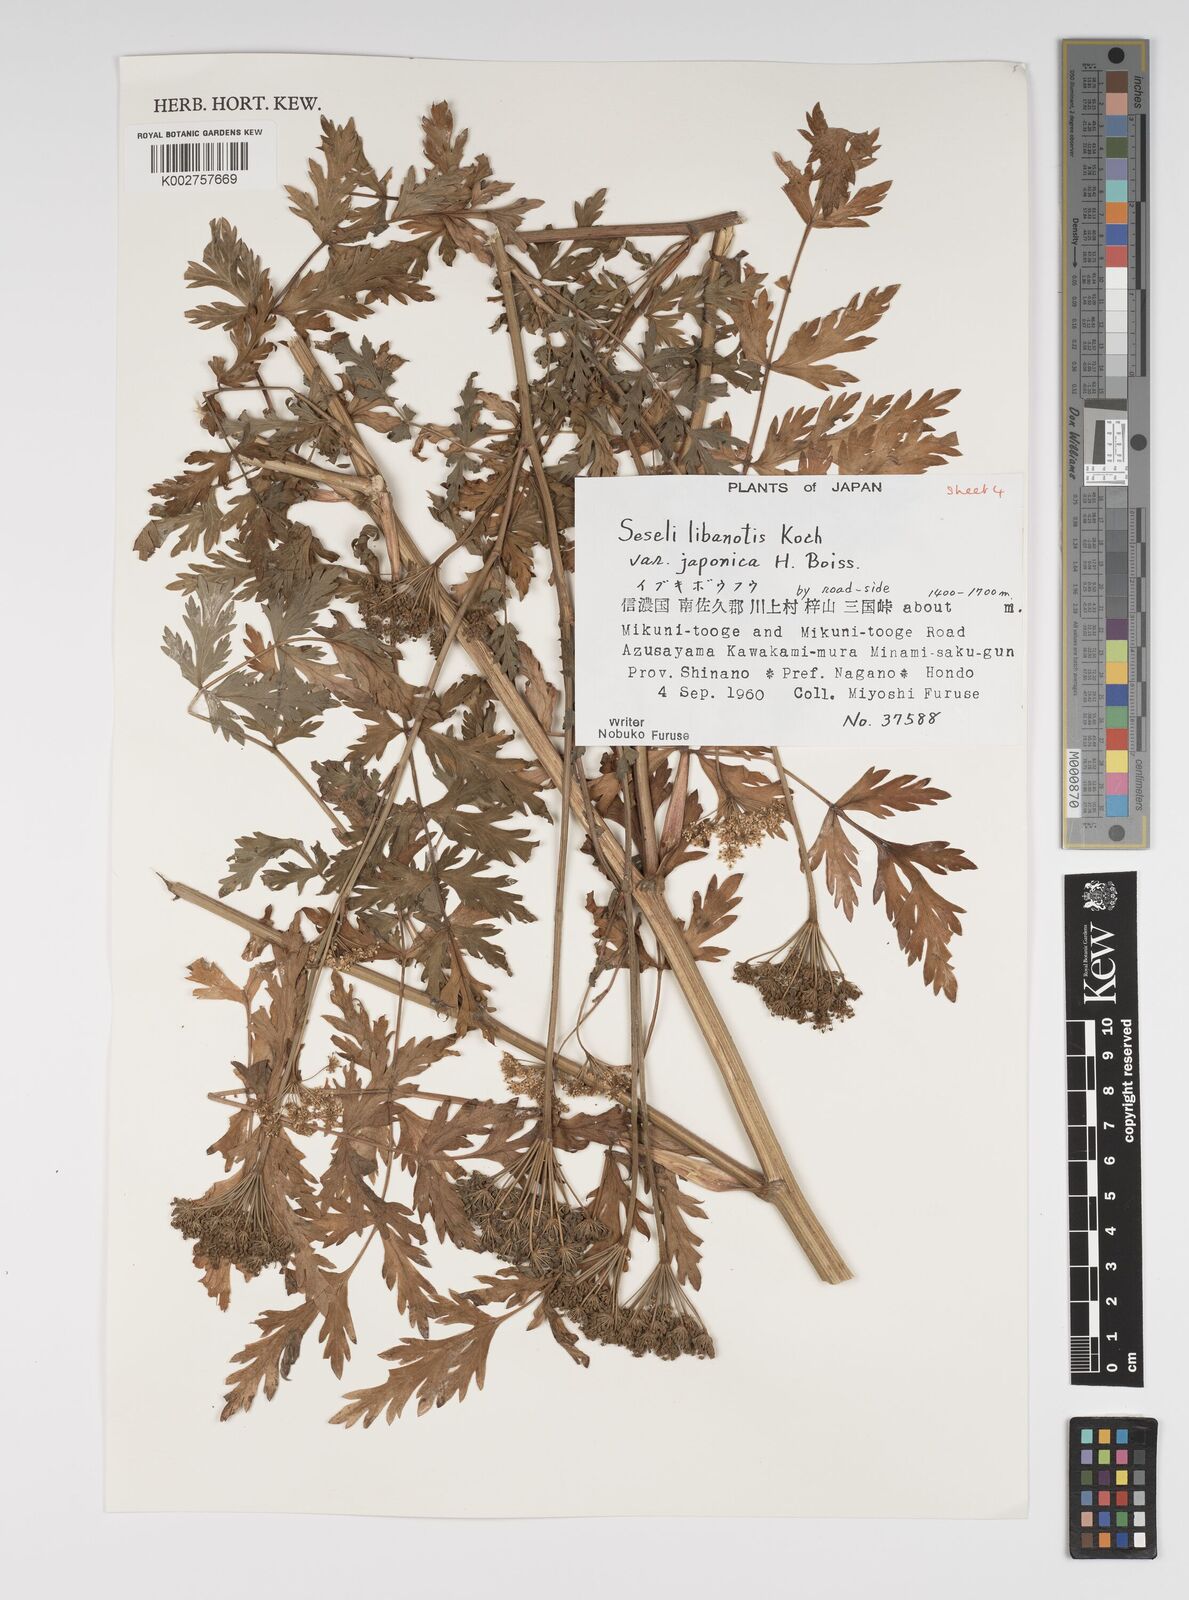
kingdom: Plantae
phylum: Tracheophyta
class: Magnoliopsida
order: Apiales
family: Apiaceae
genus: Seseli
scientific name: Seseli libanotis
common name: Mooncarrot
